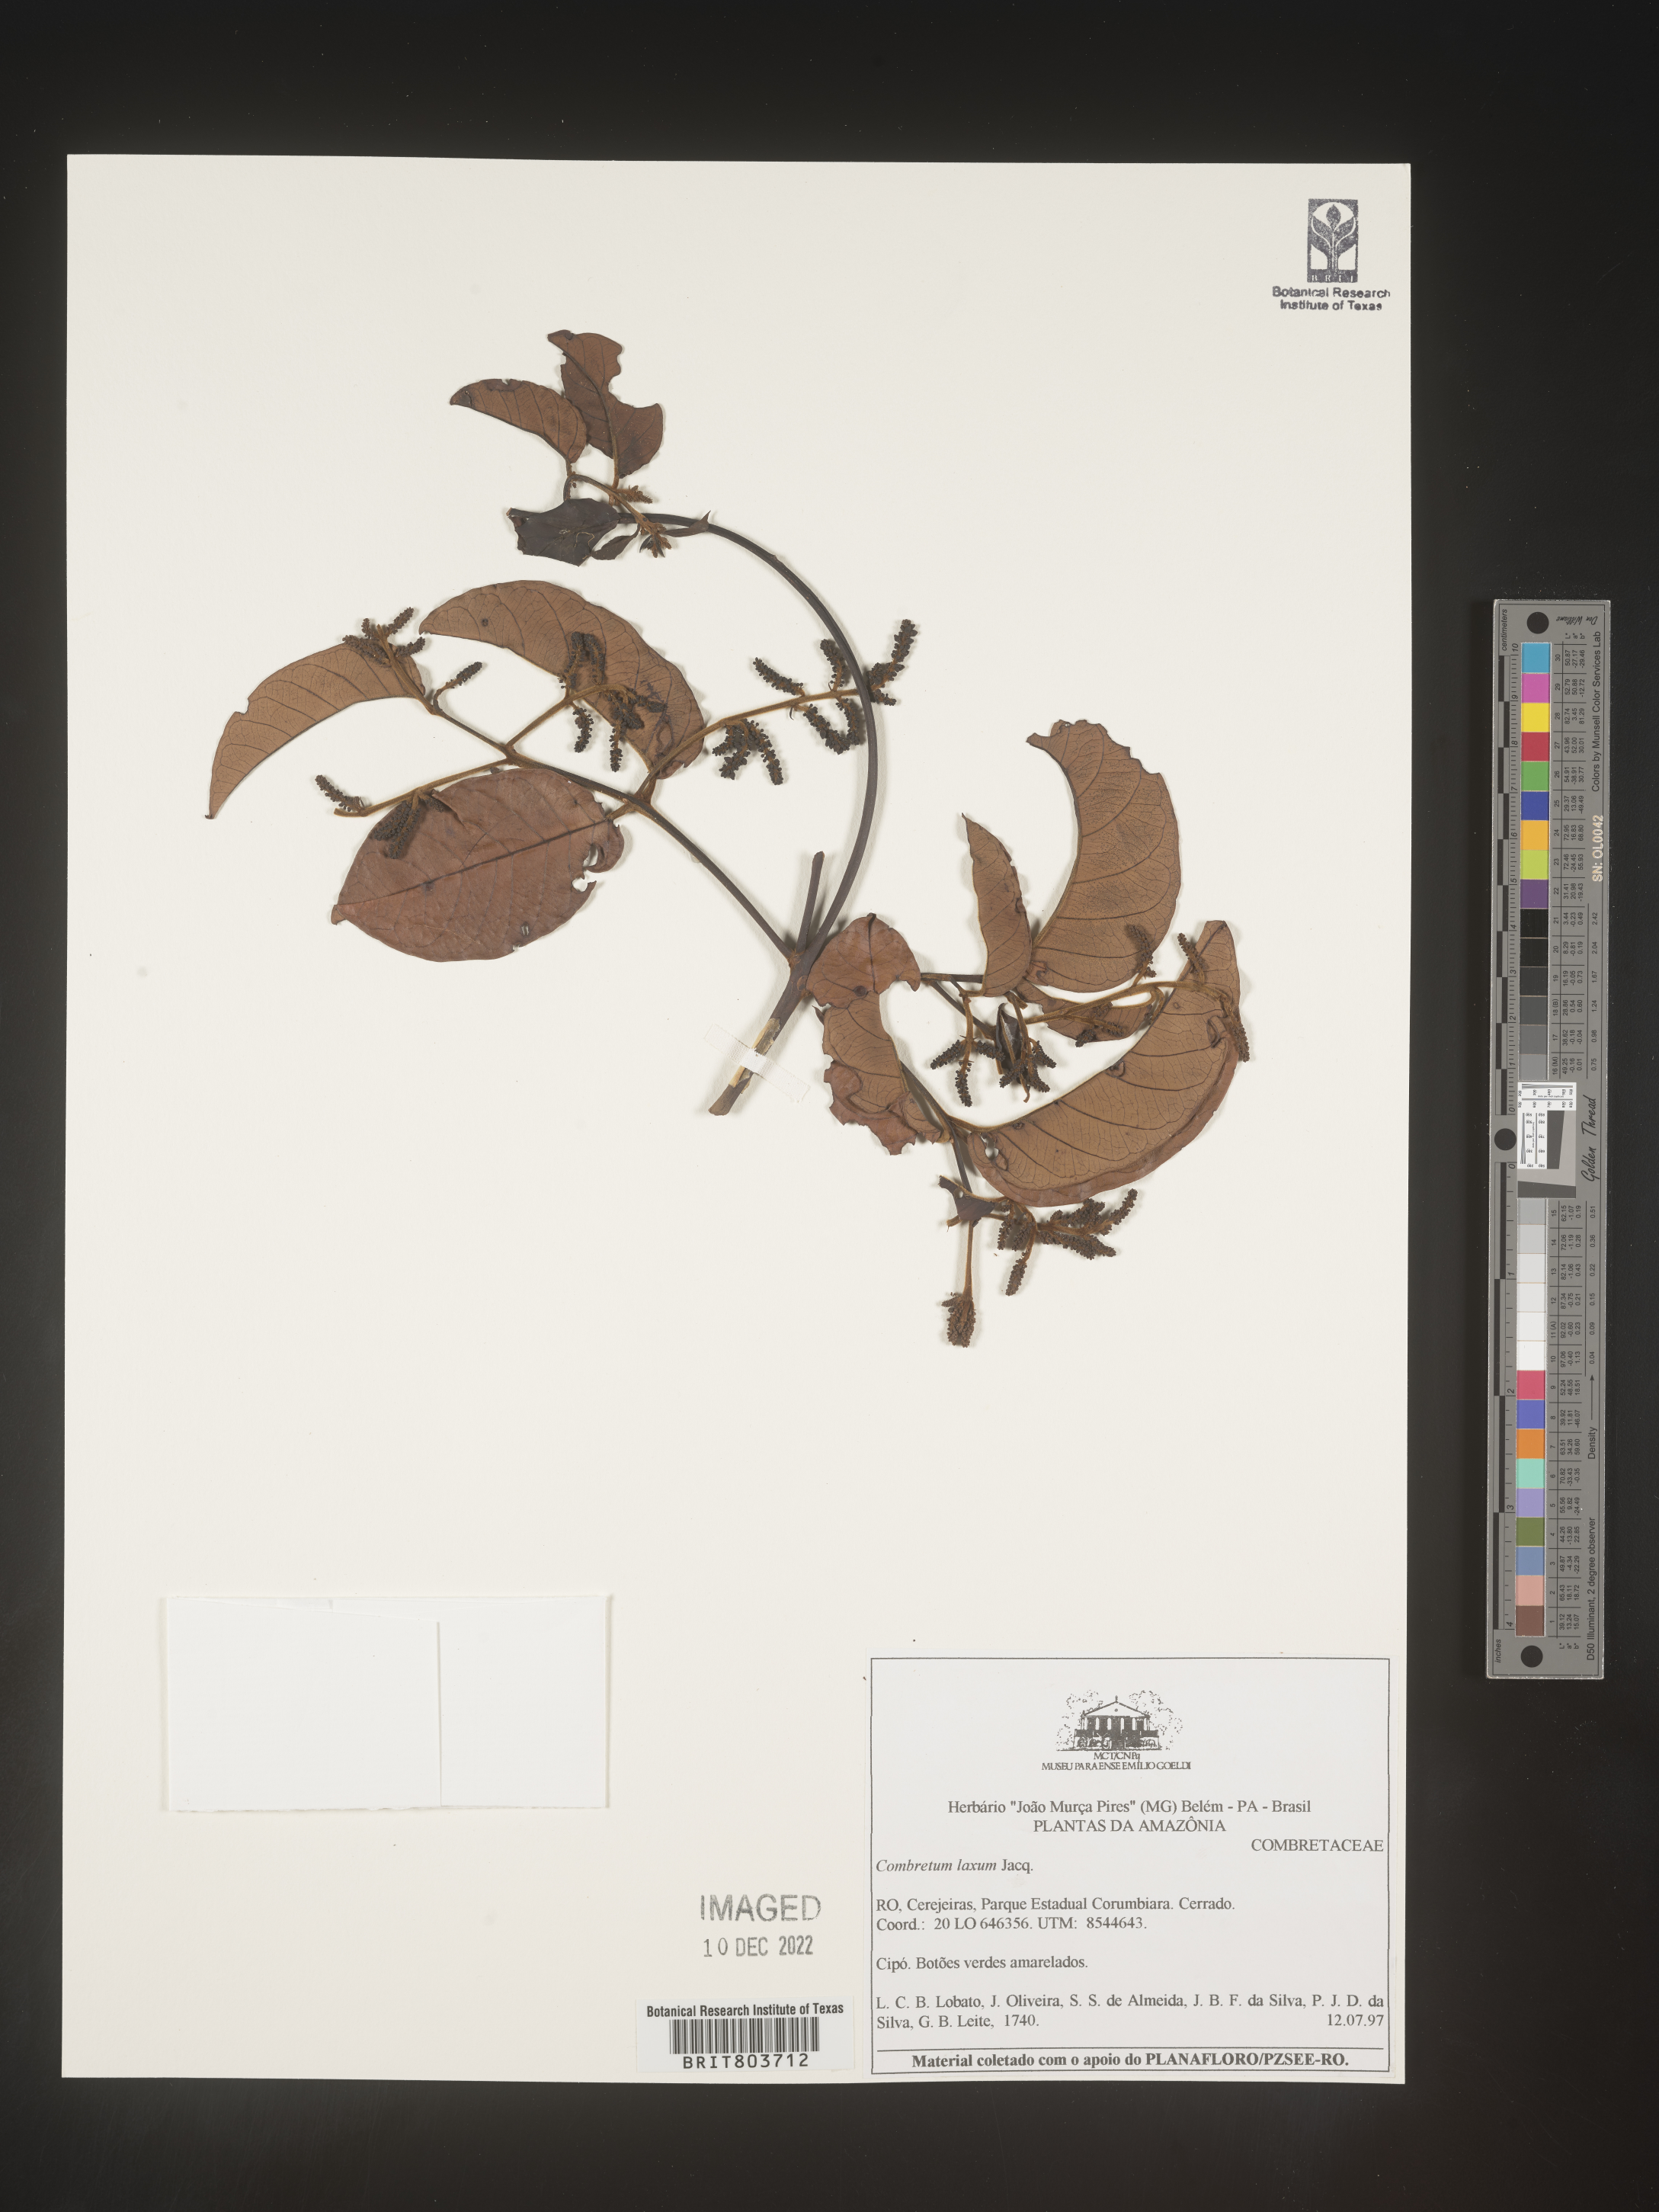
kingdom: Plantae
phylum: Tracheophyta
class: Magnoliopsida
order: Myrtales
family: Combretaceae
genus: Combretum
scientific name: Combretum
